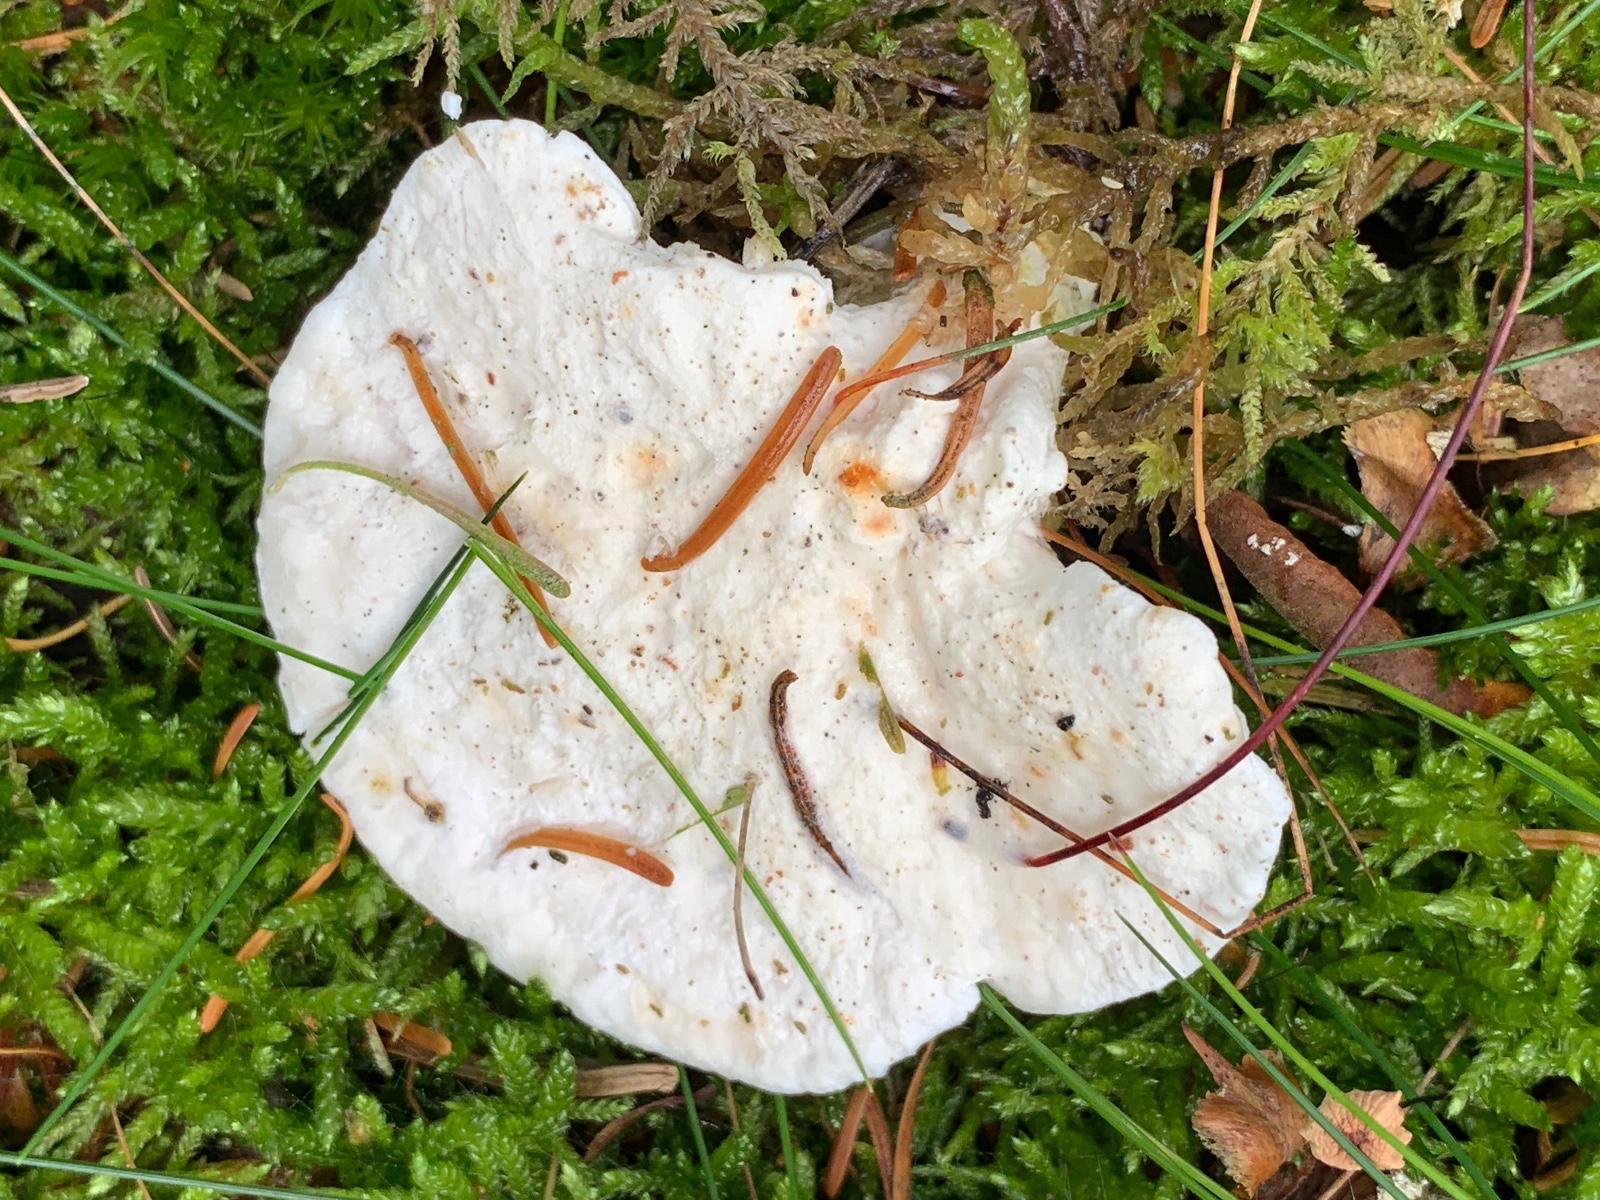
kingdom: Fungi
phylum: Basidiomycota
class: Agaricomycetes
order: Polyporales
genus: Amaropostia
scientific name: Amaropostia stiptica
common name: bitter kødporesvamp
